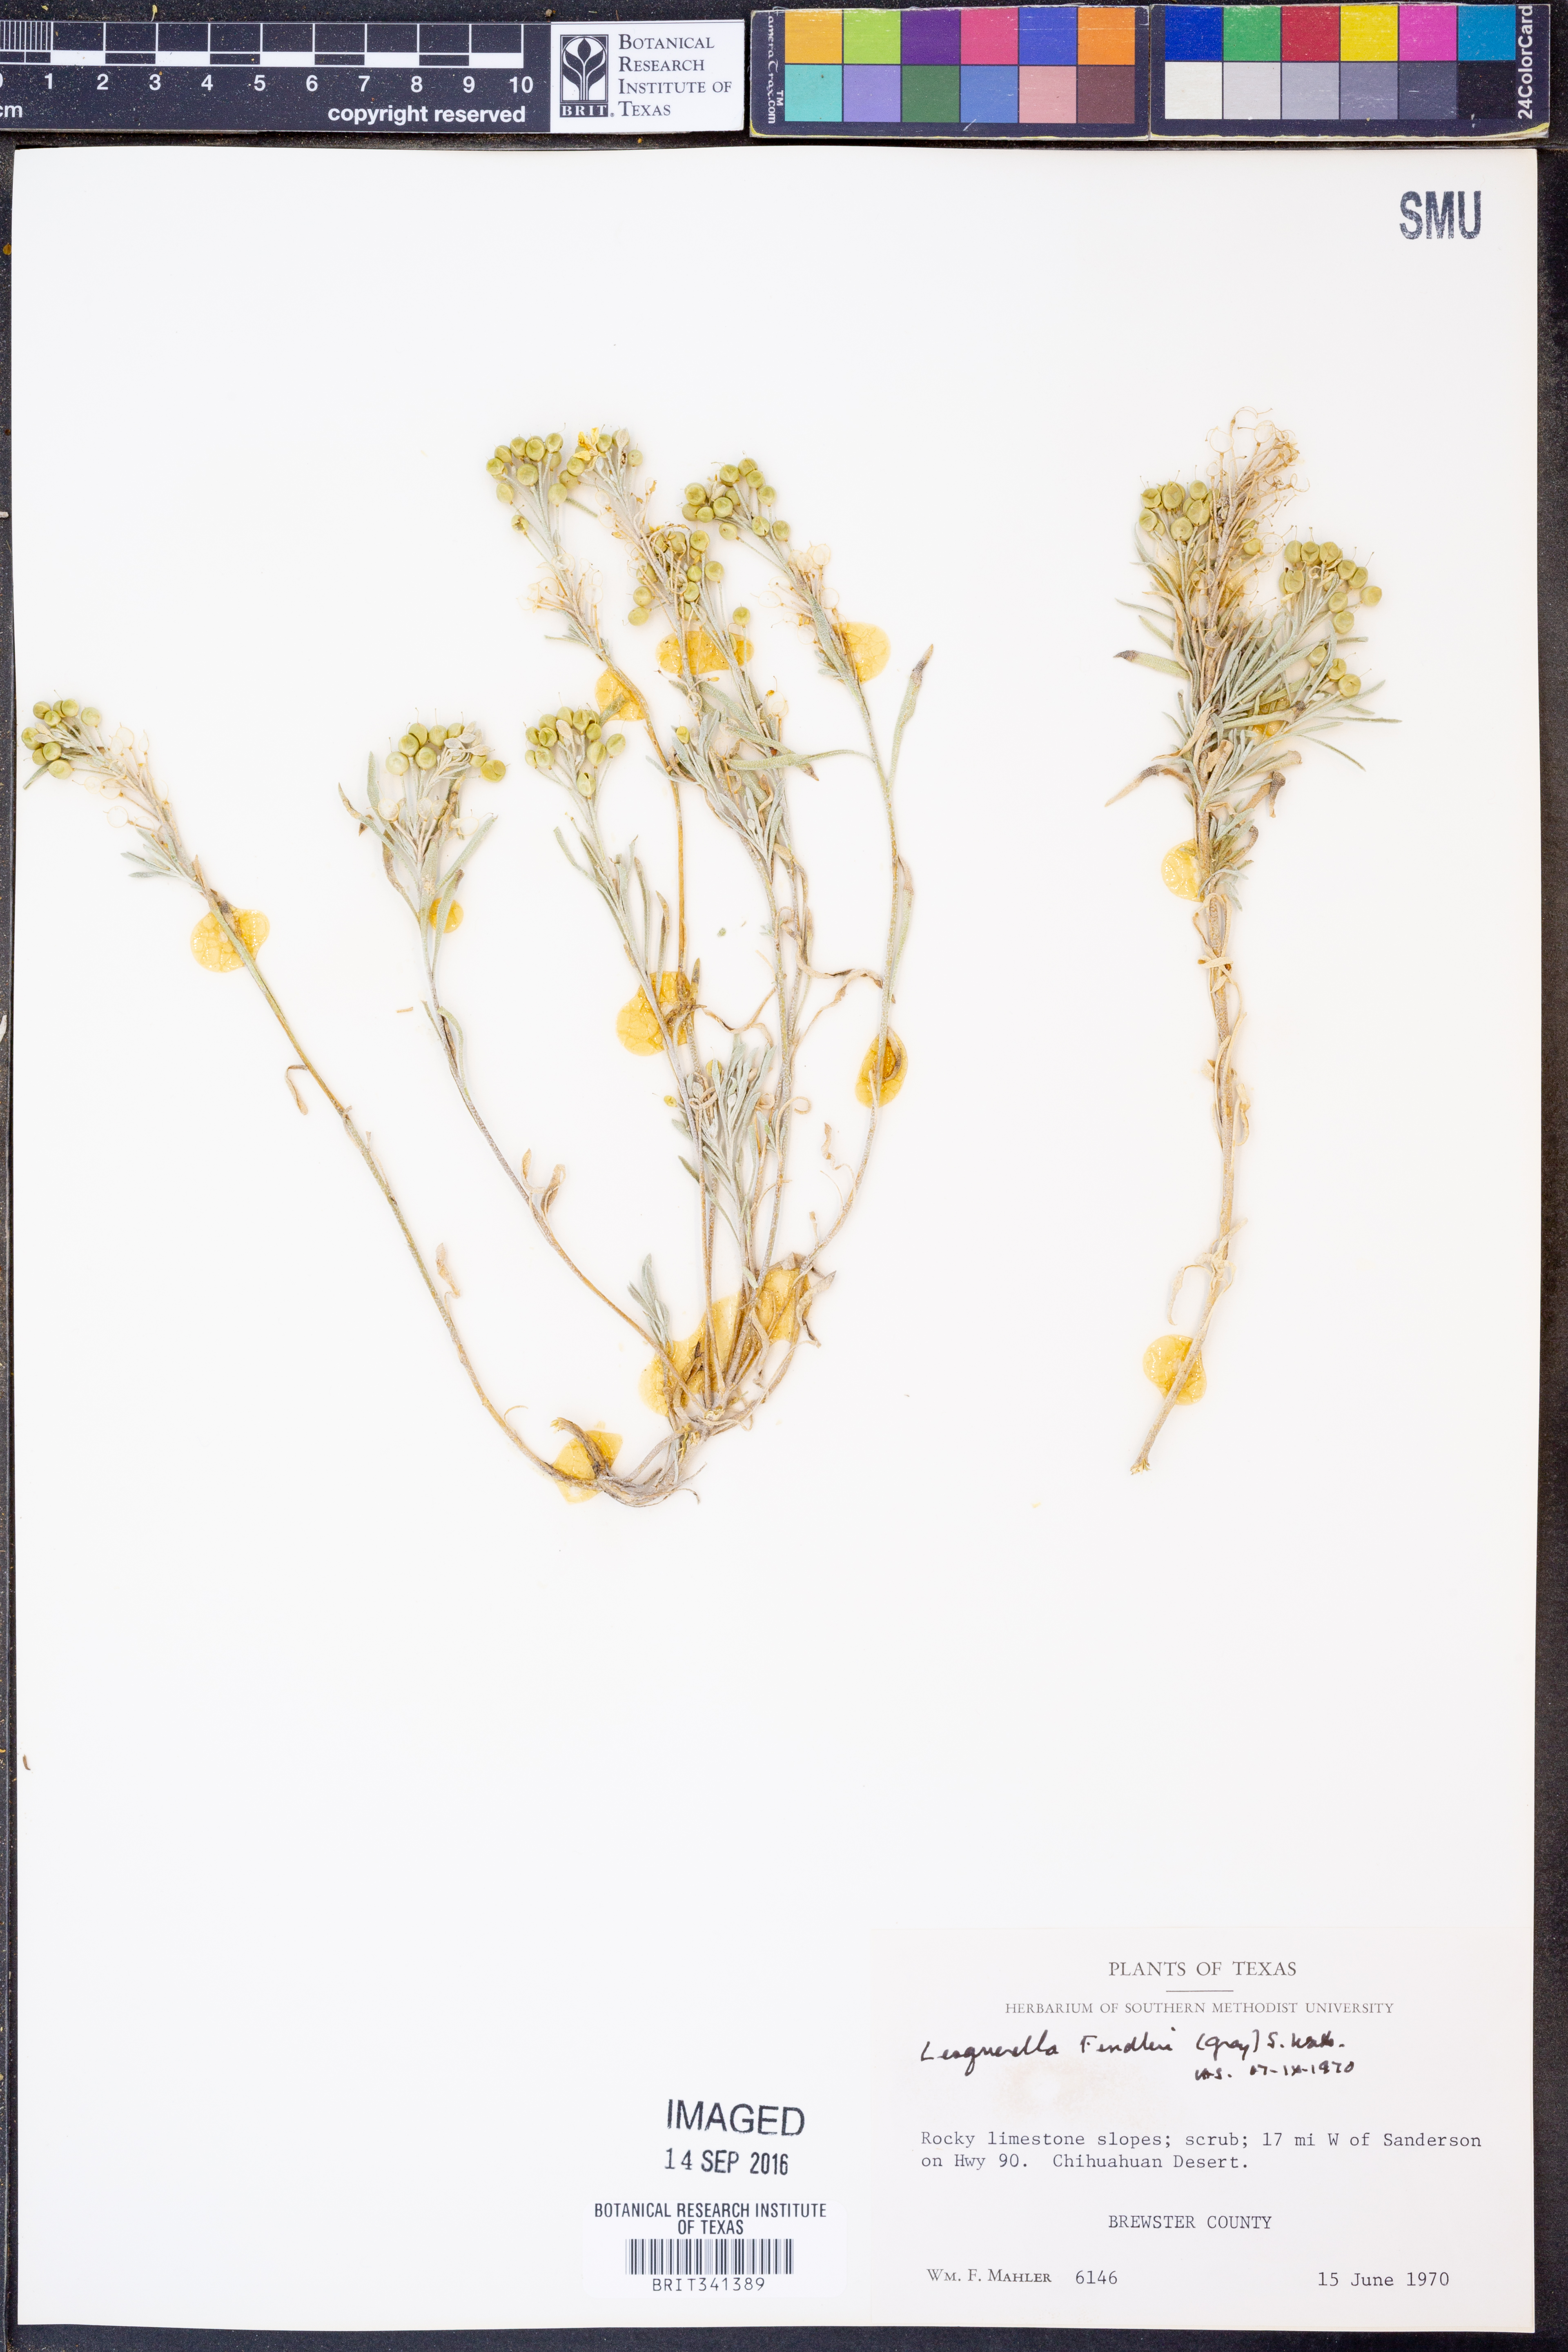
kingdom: Plantae
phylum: Tracheophyta
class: Magnoliopsida
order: Brassicales
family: Brassicaceae
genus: Physaria
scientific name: Physaria fendleri
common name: Fendler's bladderpod
